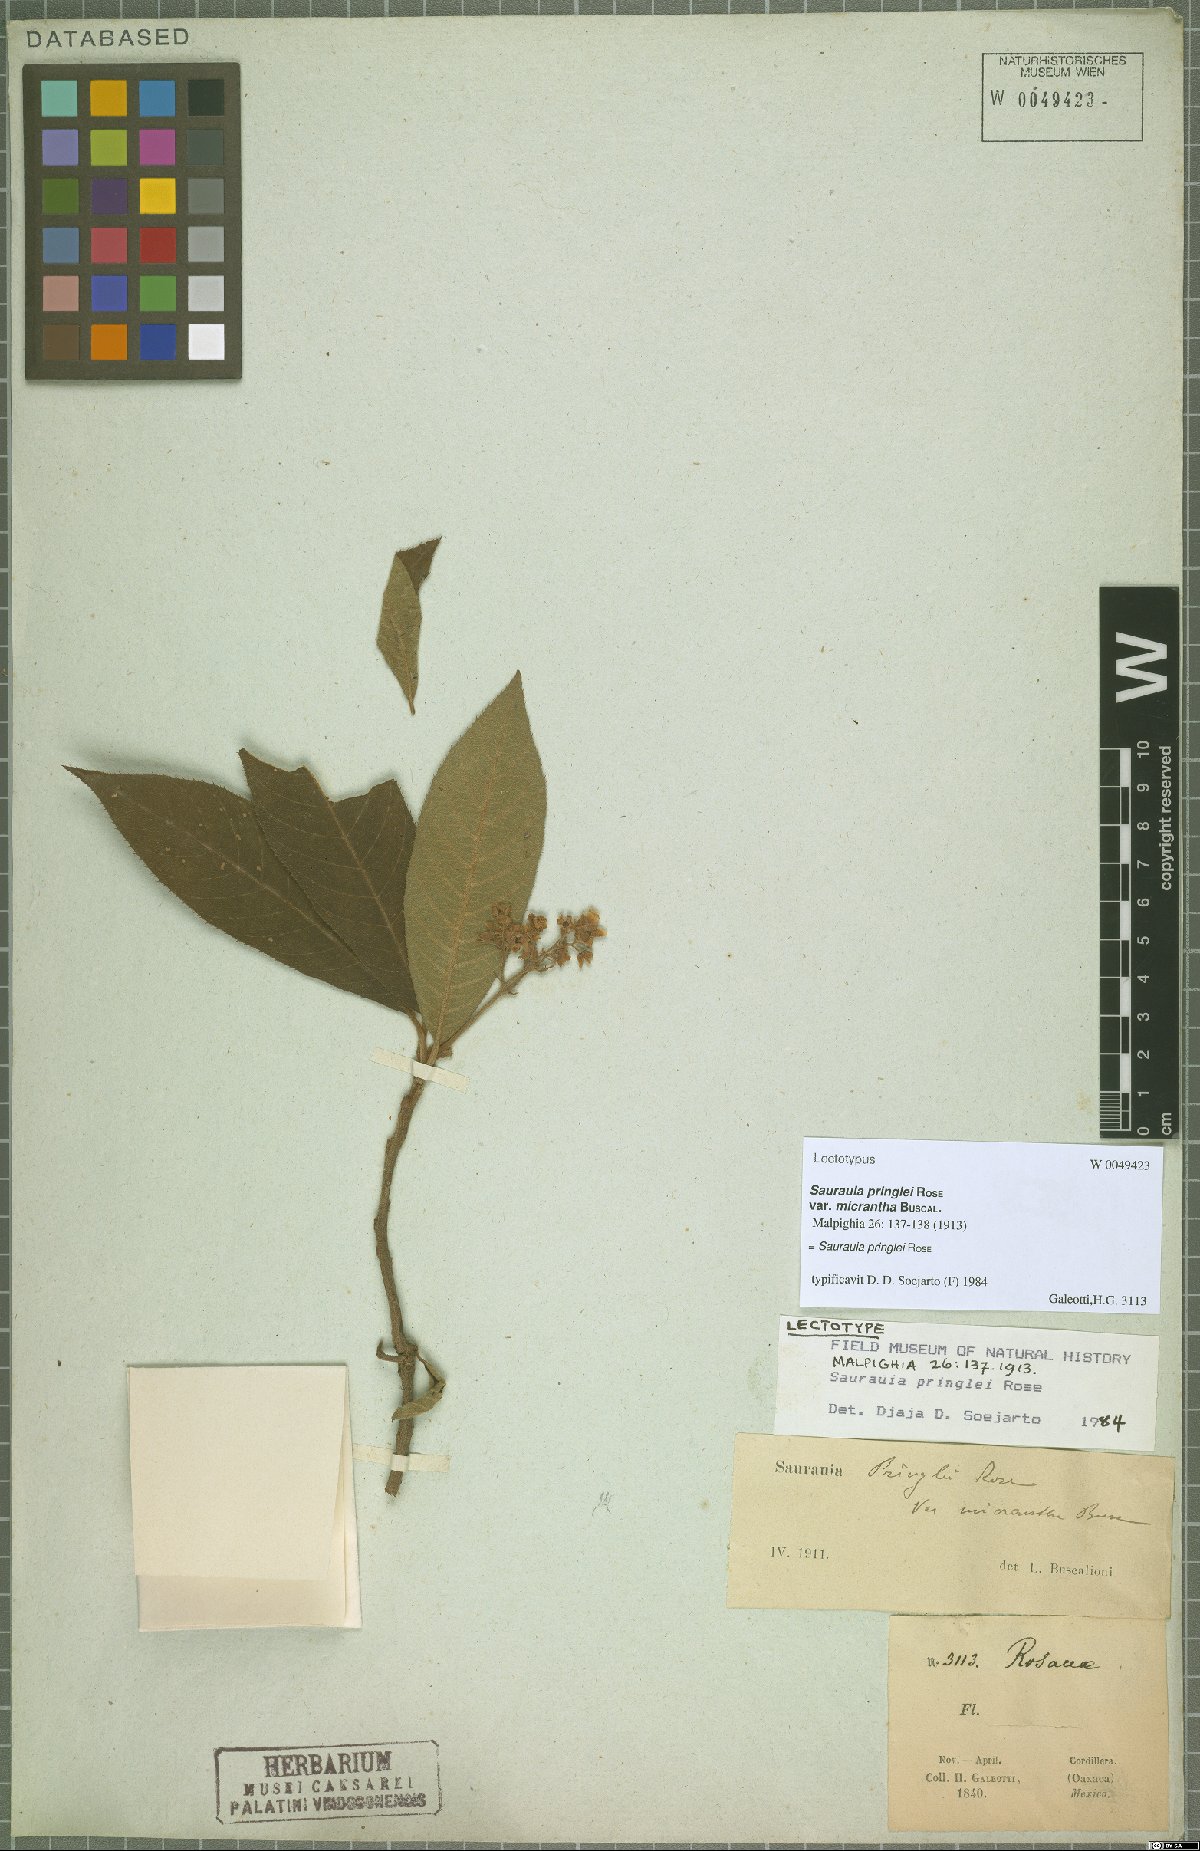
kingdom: Plantae
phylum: Tracheophyta
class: Magnoliopsida
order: Ericales
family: Actinidiaceae
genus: Saurauia
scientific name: Saurauia pringlei
